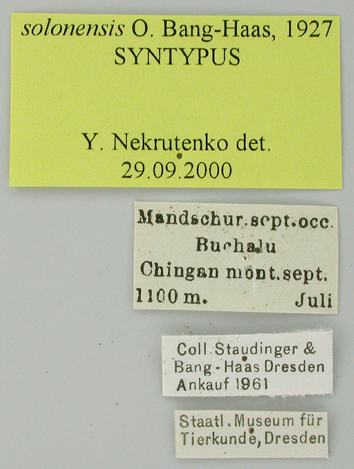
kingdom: Animalia
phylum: Arthropoda
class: Insecta
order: Lepidoptera
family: Papilionidae
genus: Parnassius
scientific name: Parnassius bremeri
